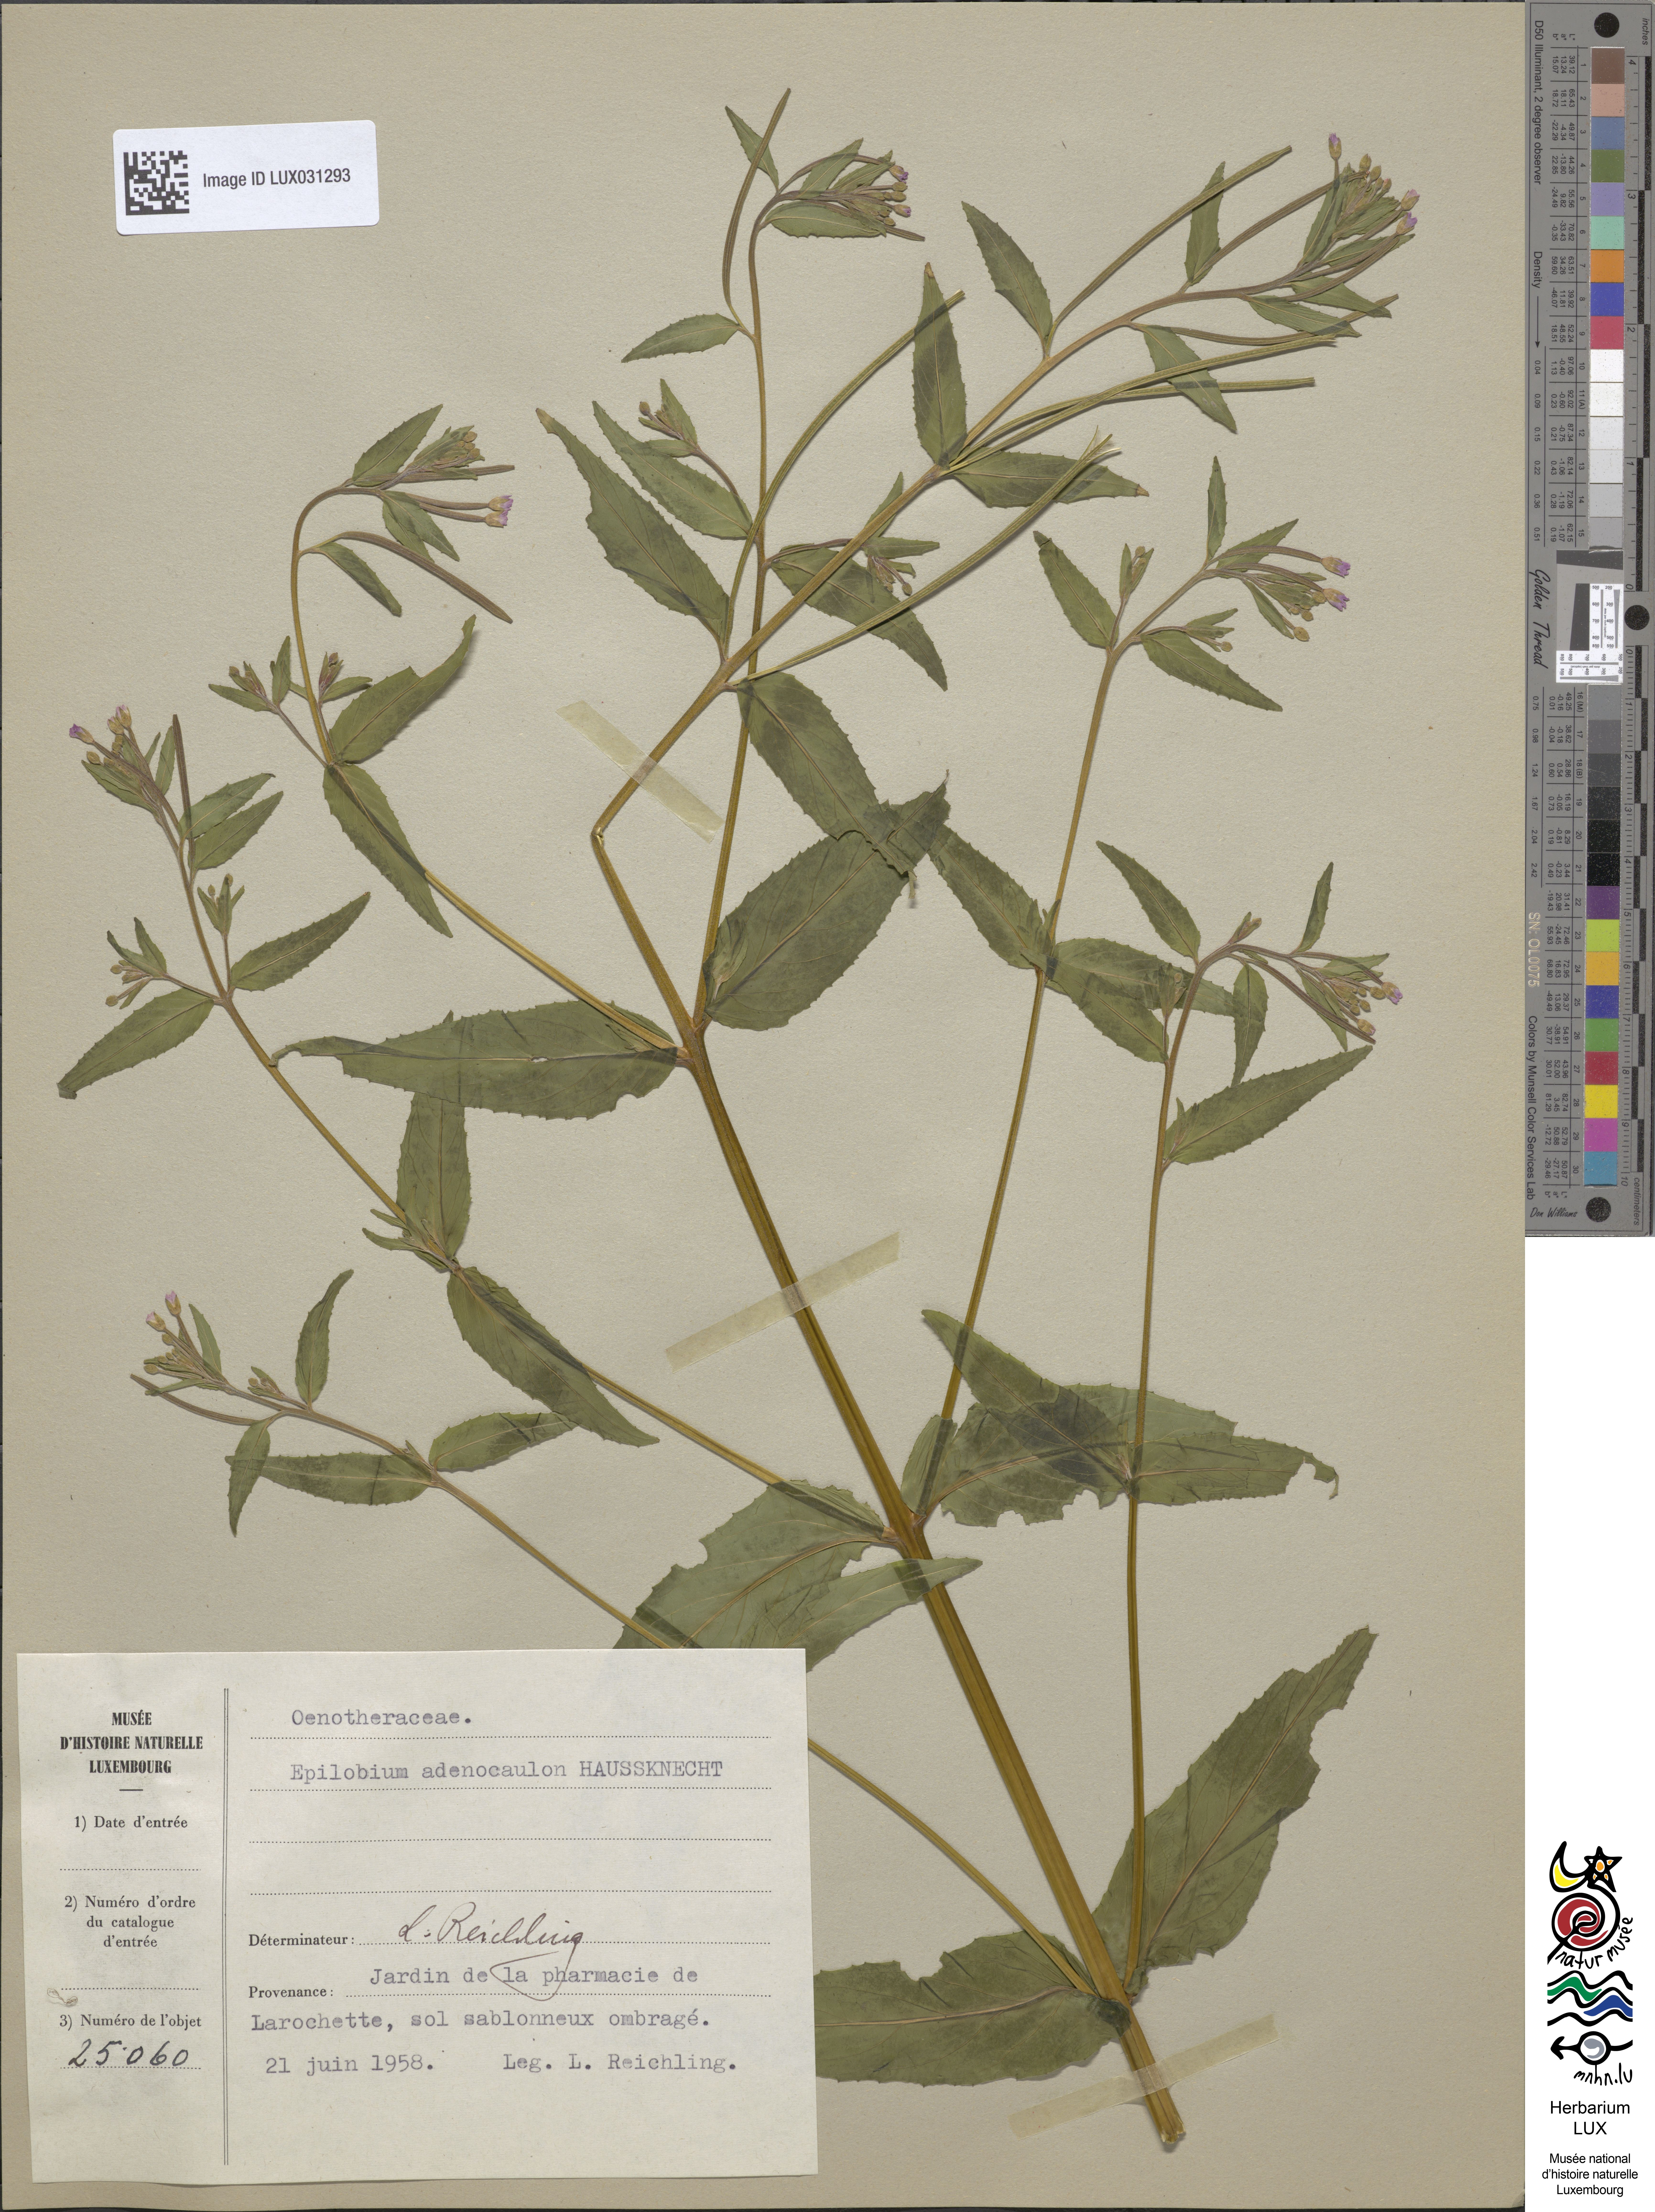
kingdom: Plantae
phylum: Tracheophyta
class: Magnoliopsida
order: Myrtales
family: Onagraceae
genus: Epilobium
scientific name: Epilobium ciliatum
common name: American willowherb
